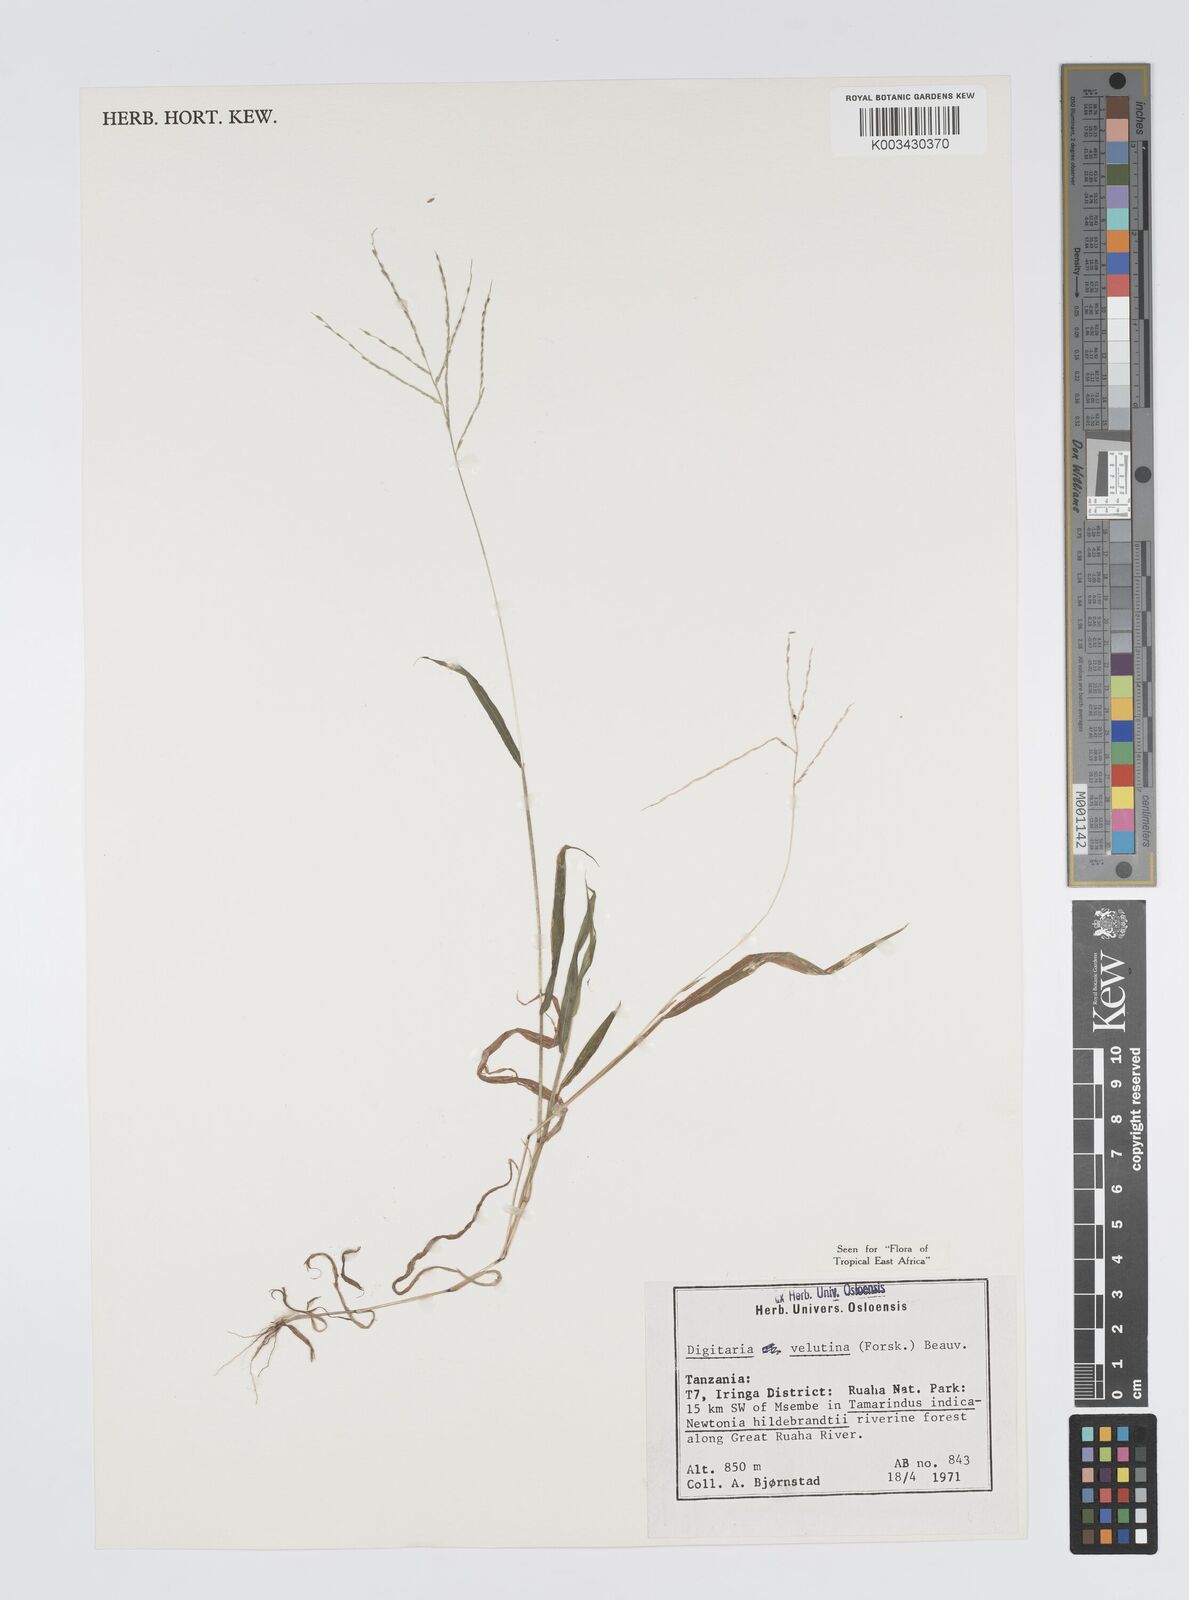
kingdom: Plantae
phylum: Tracheophyta
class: Liliopsida
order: Poales
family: Poaceae
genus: Digitaria
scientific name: Digitaria velutina
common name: Long-plume finger grass
